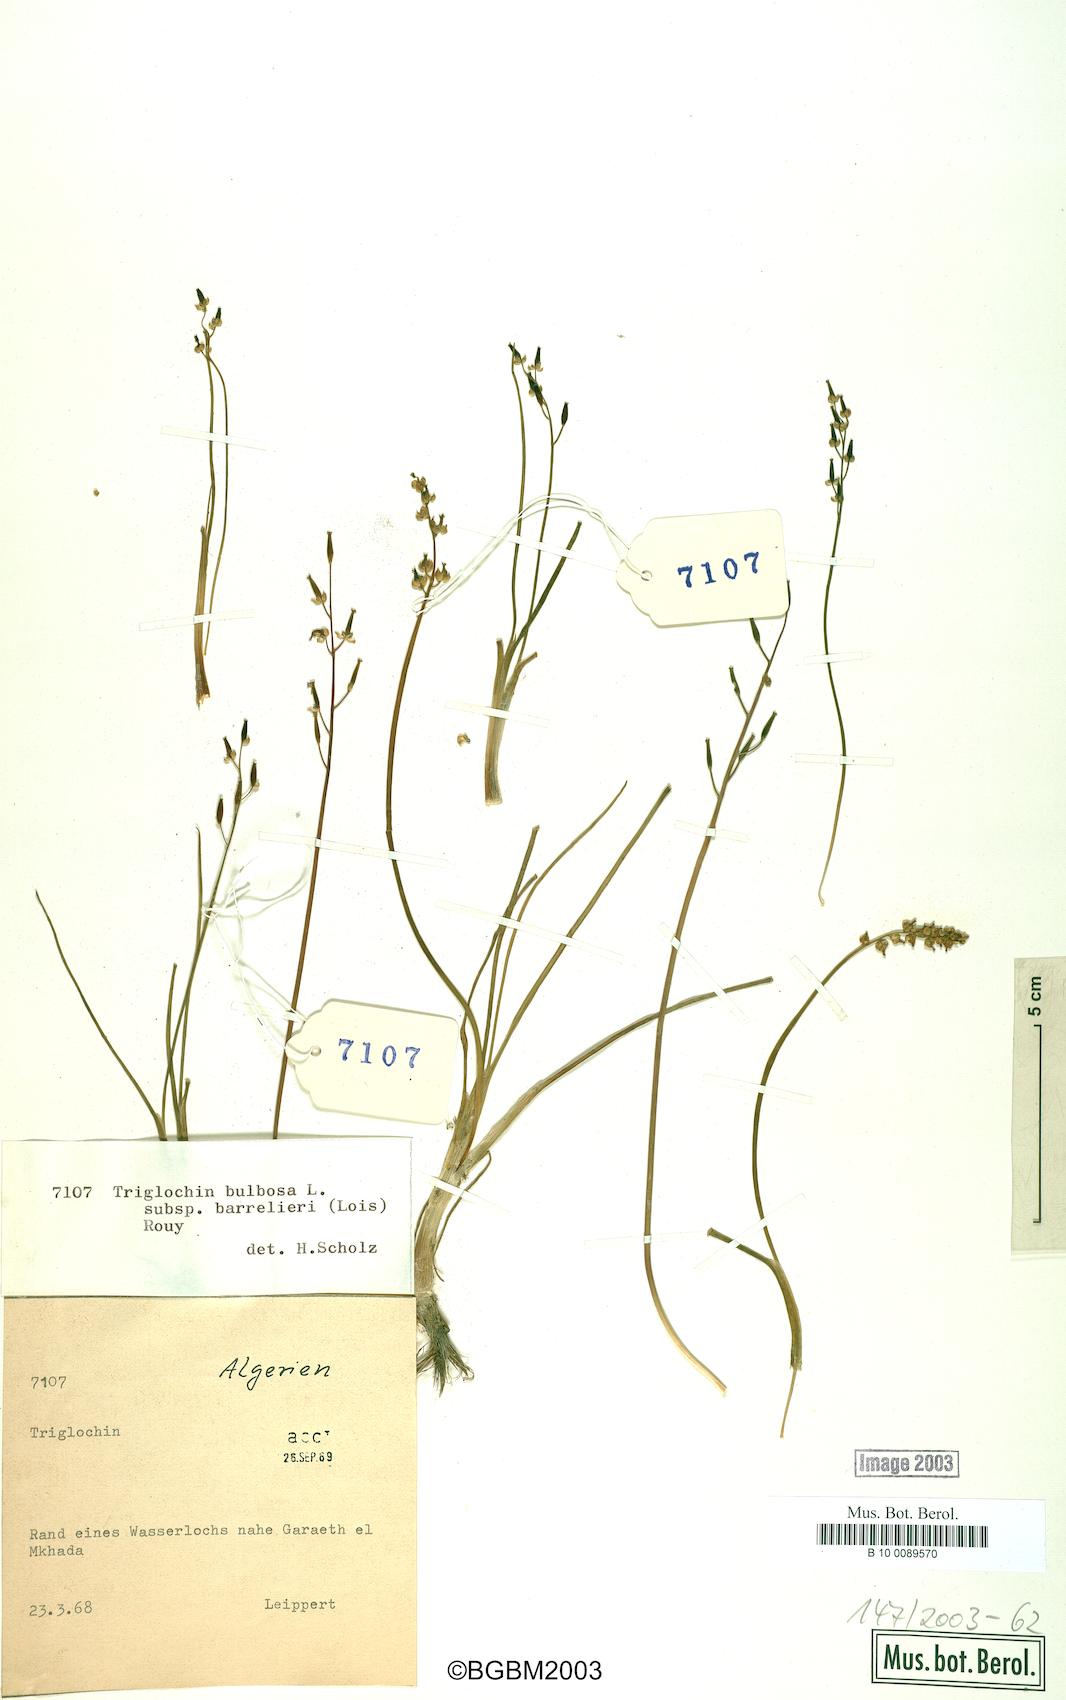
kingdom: Plantae
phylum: Tracheophyta
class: Liliopsida
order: Alismatales
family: Juncaginaceae
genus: Triglochin
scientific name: Triglochin barrelieri
